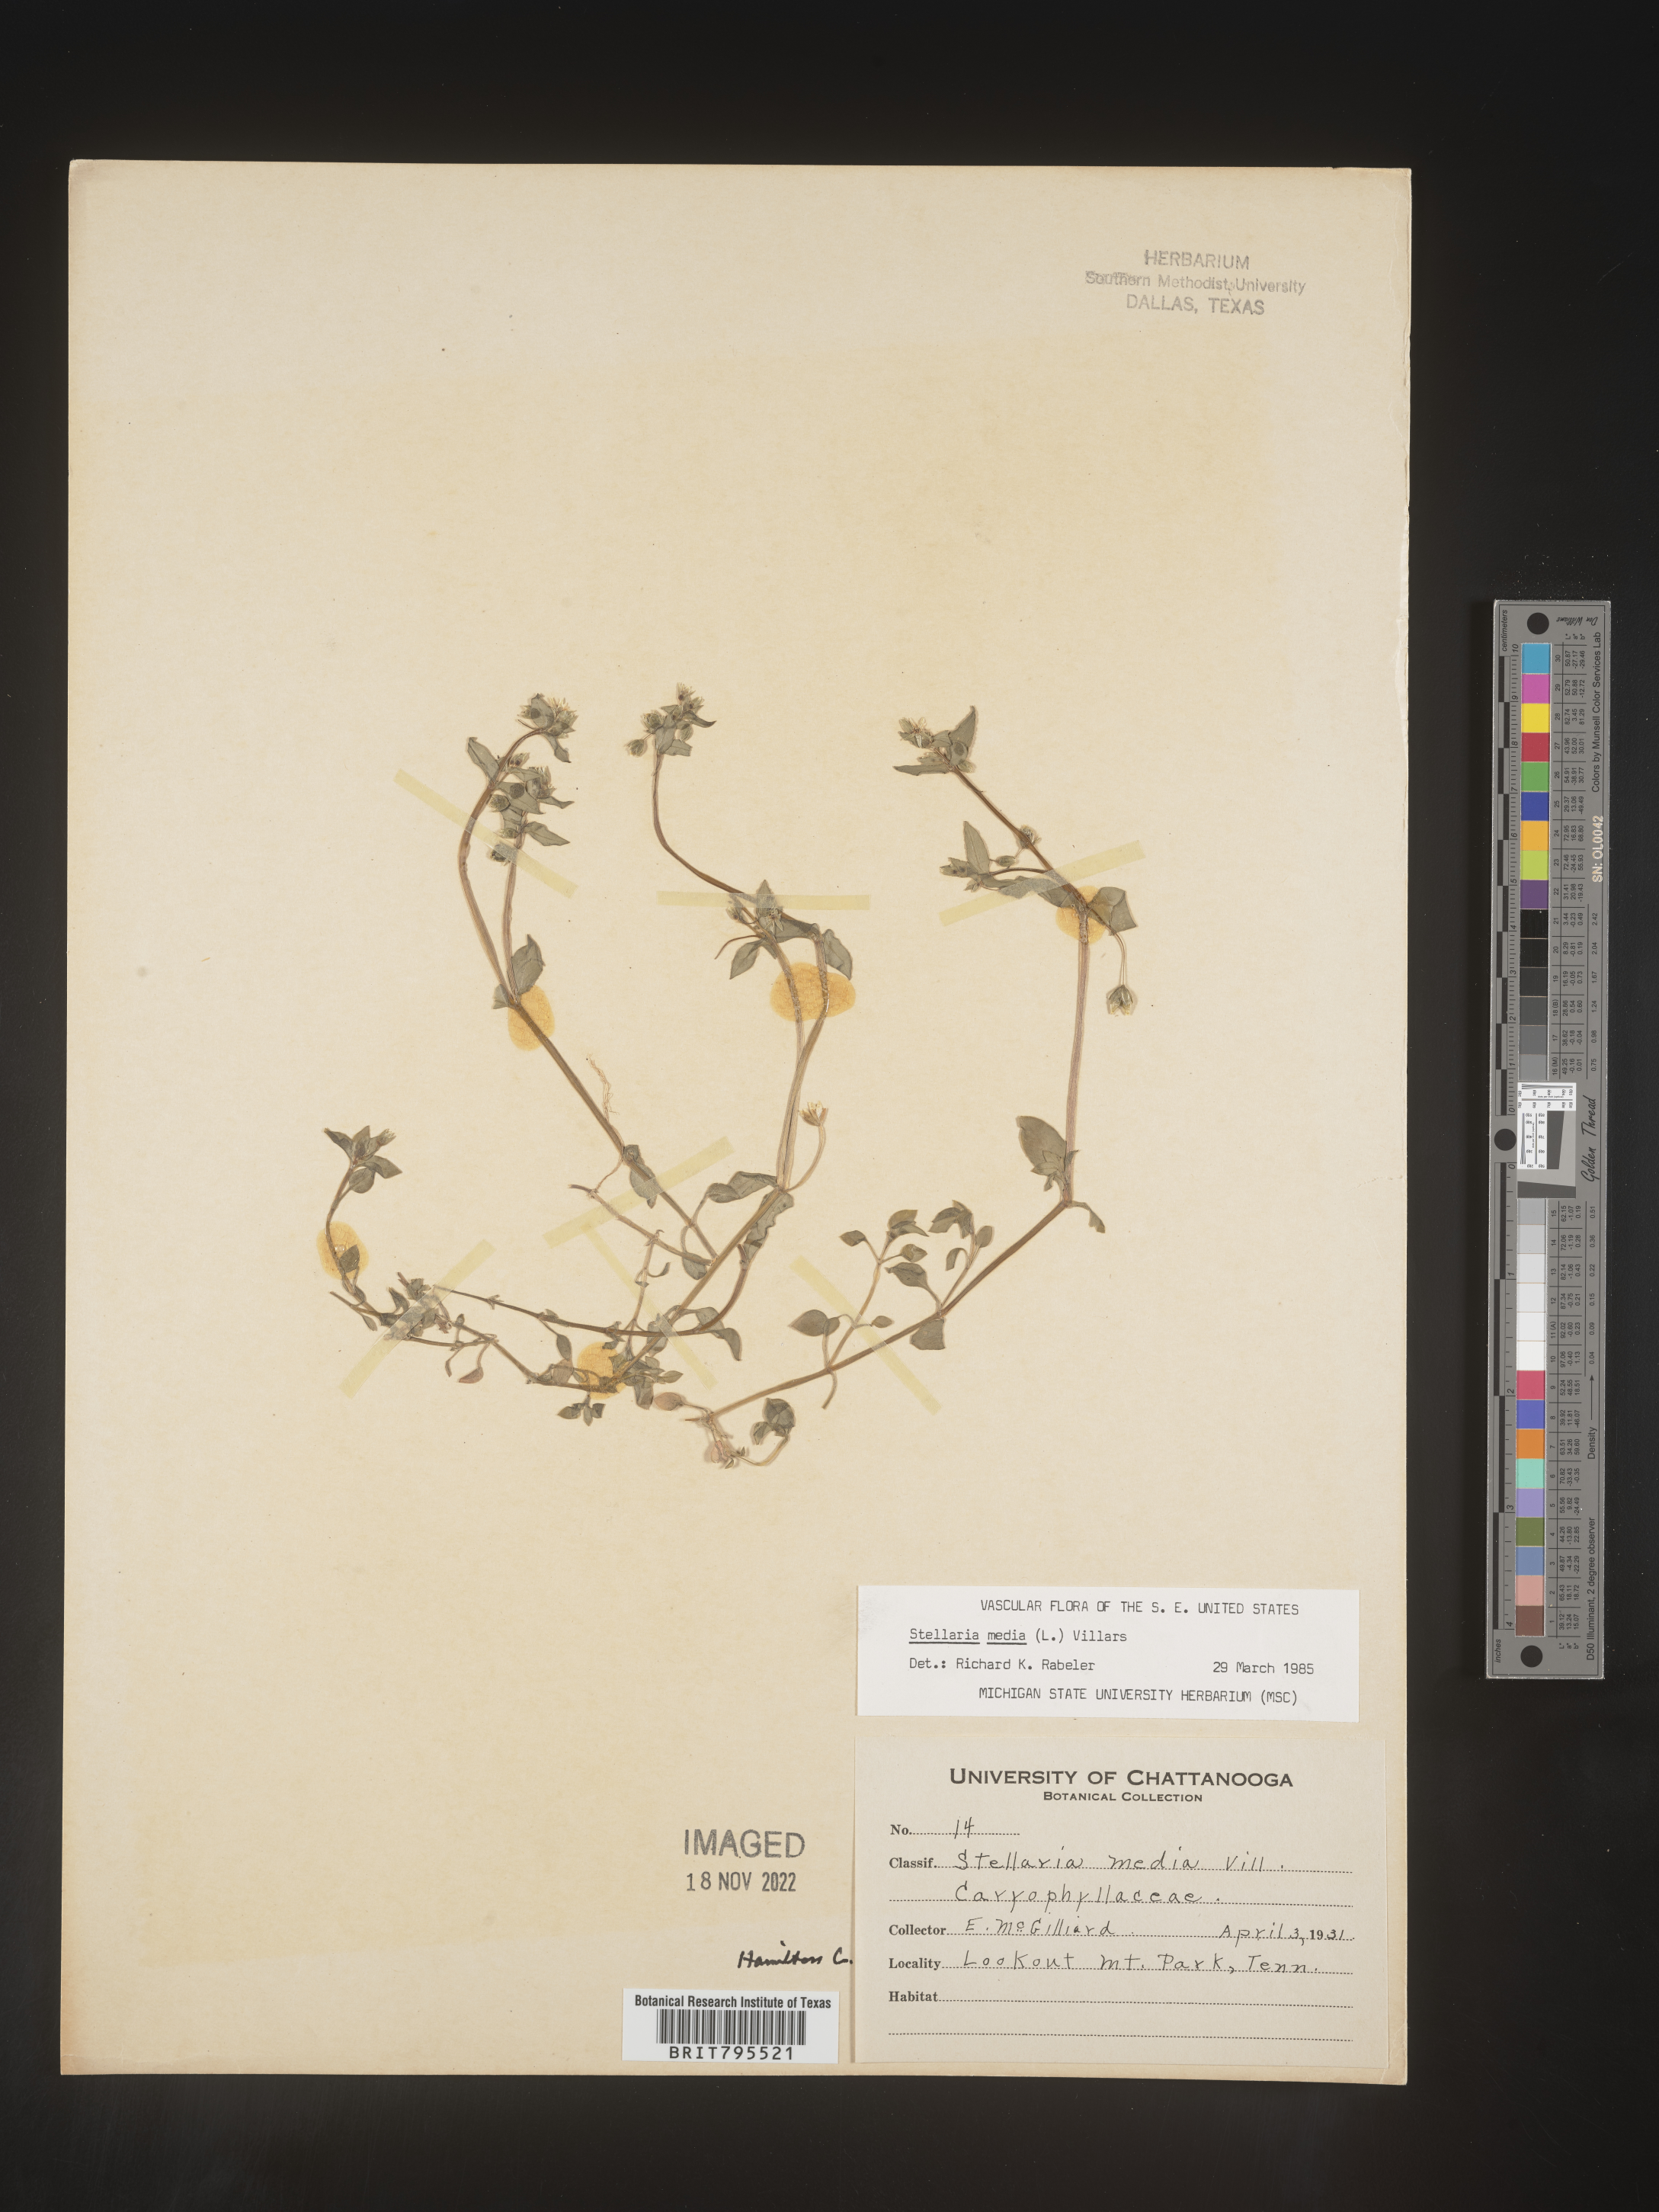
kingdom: Plantae
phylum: Tracheophyta
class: Magnoliopsida
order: Caryophyllales
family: Caryophyllaceae
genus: Stellaria
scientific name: Stellaria media
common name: Common chickweed
